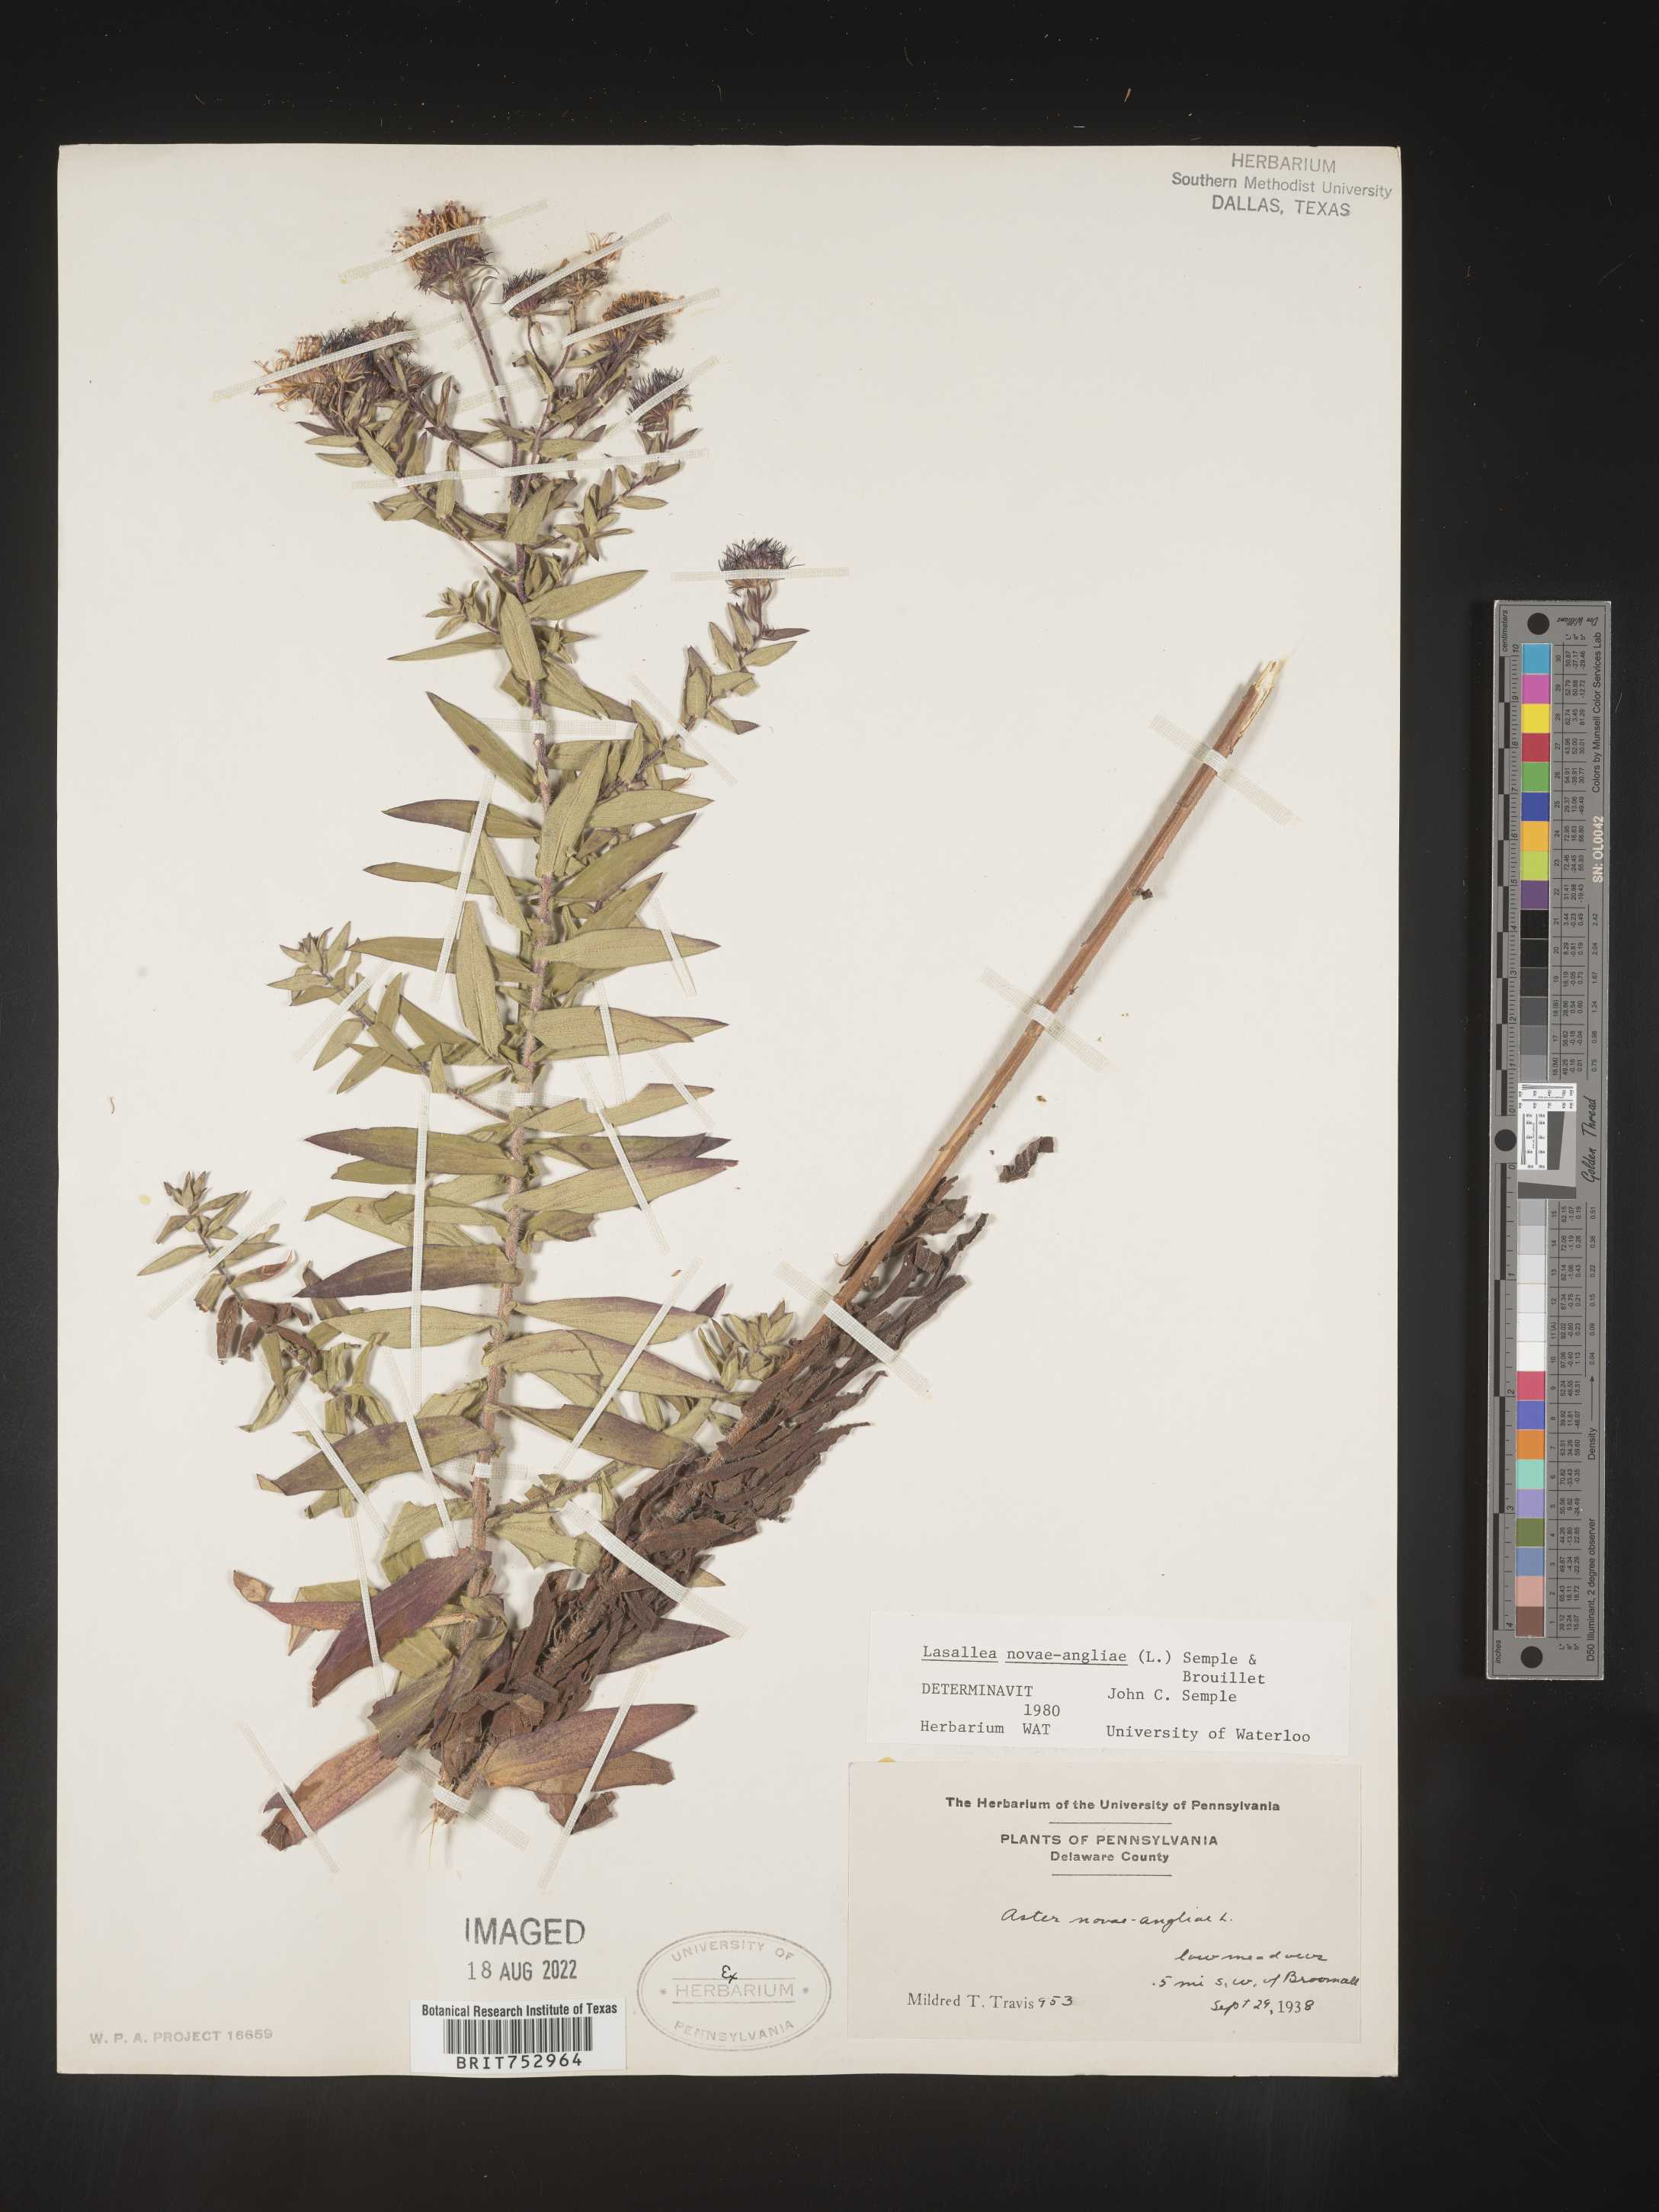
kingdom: Plantae
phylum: Tracheophyta
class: Magnoliopsida
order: Asterales
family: Asteraceae
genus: Symphyotrichum
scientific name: Symphyotrichum novae-angliae
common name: Michaelmas daisy
